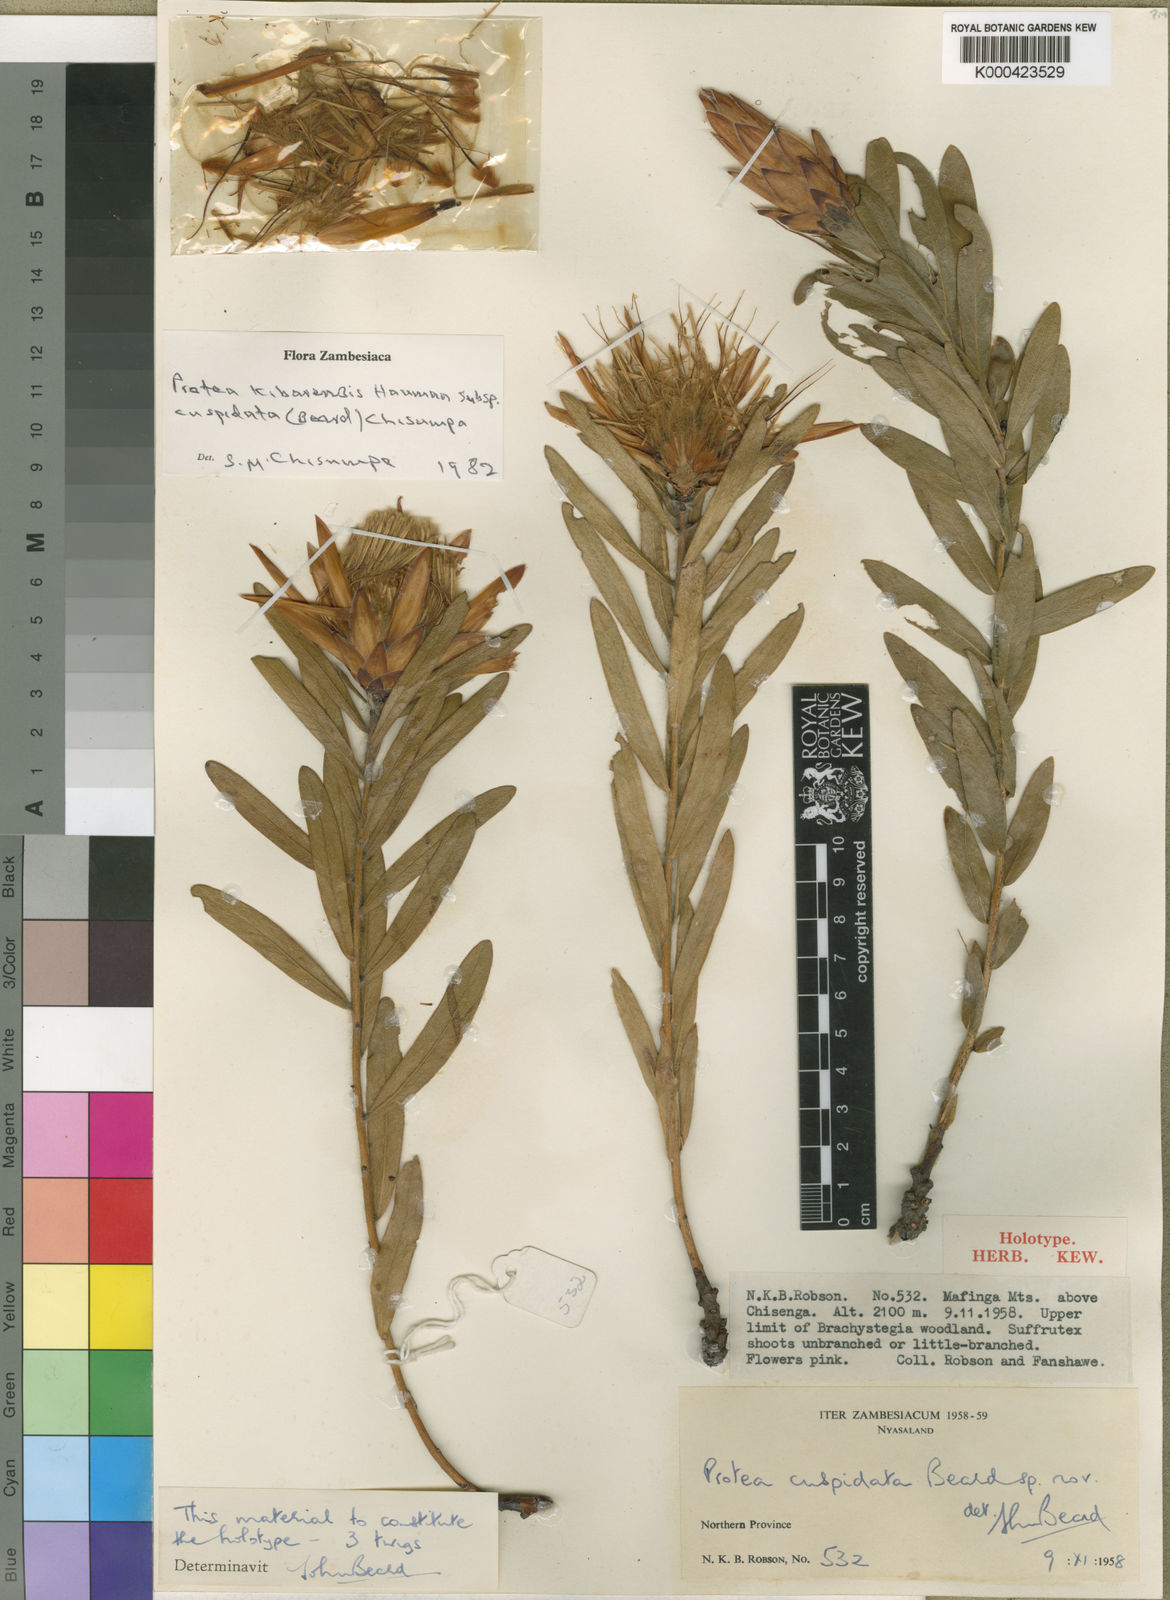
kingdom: Plantae
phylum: Tracheophyta
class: Magnoliopsida
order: Proteales
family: Proteaceae
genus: Protea
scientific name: Protea kibarensis
